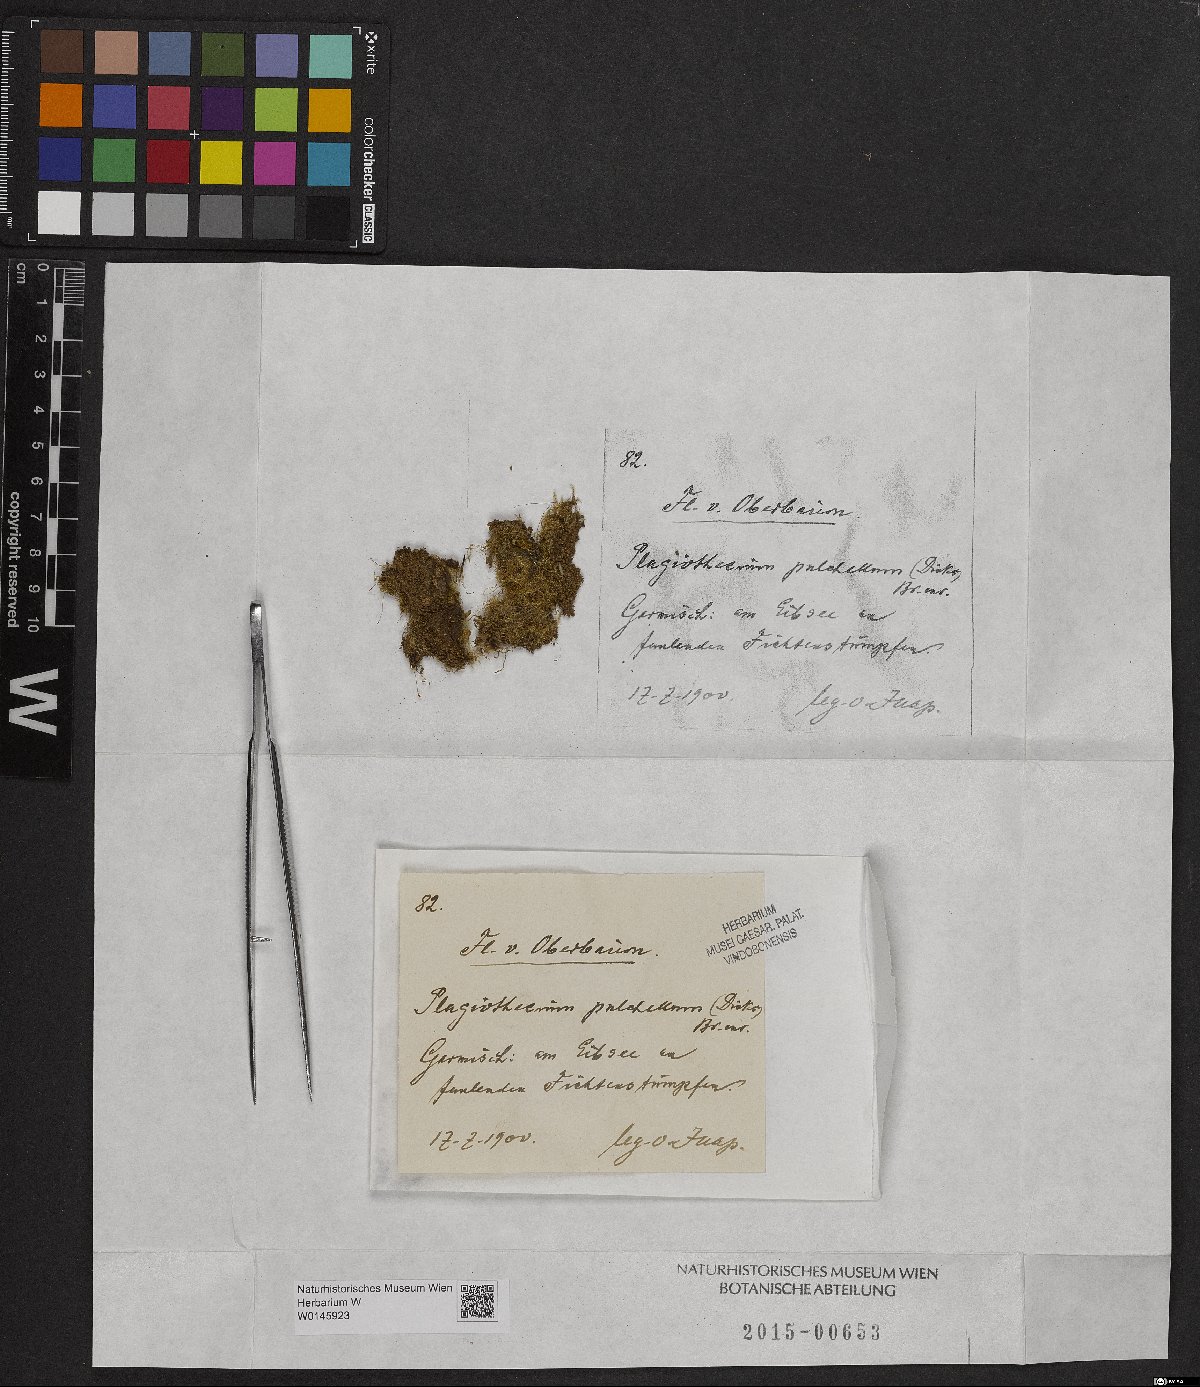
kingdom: Plantae
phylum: Bryophyta
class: Bryopsida
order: Hypnales
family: Plagiotheciaceae
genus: Isopterygiella
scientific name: Isopterygiella pulchella
